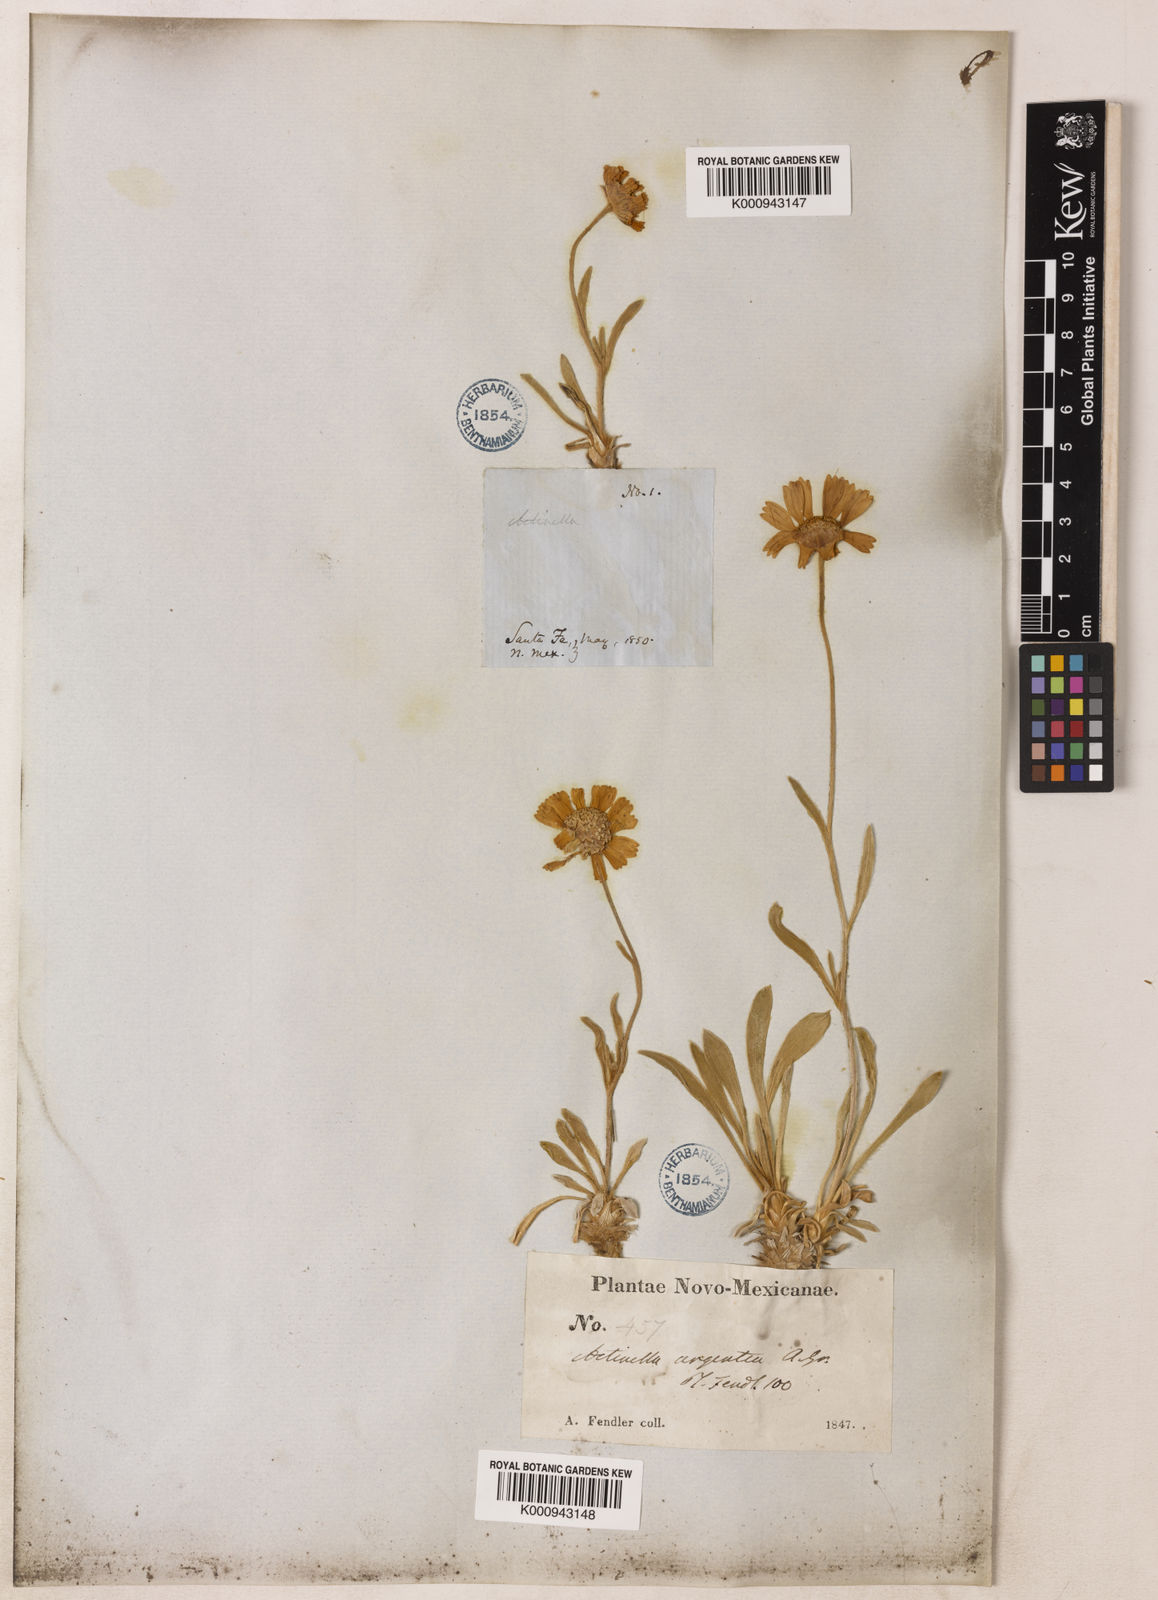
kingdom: Plantae
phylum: Tracheophyta
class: Magnoliopsida
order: Asterales
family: Asteraceae
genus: Tetraneuris
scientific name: Tetraneuris argentea
